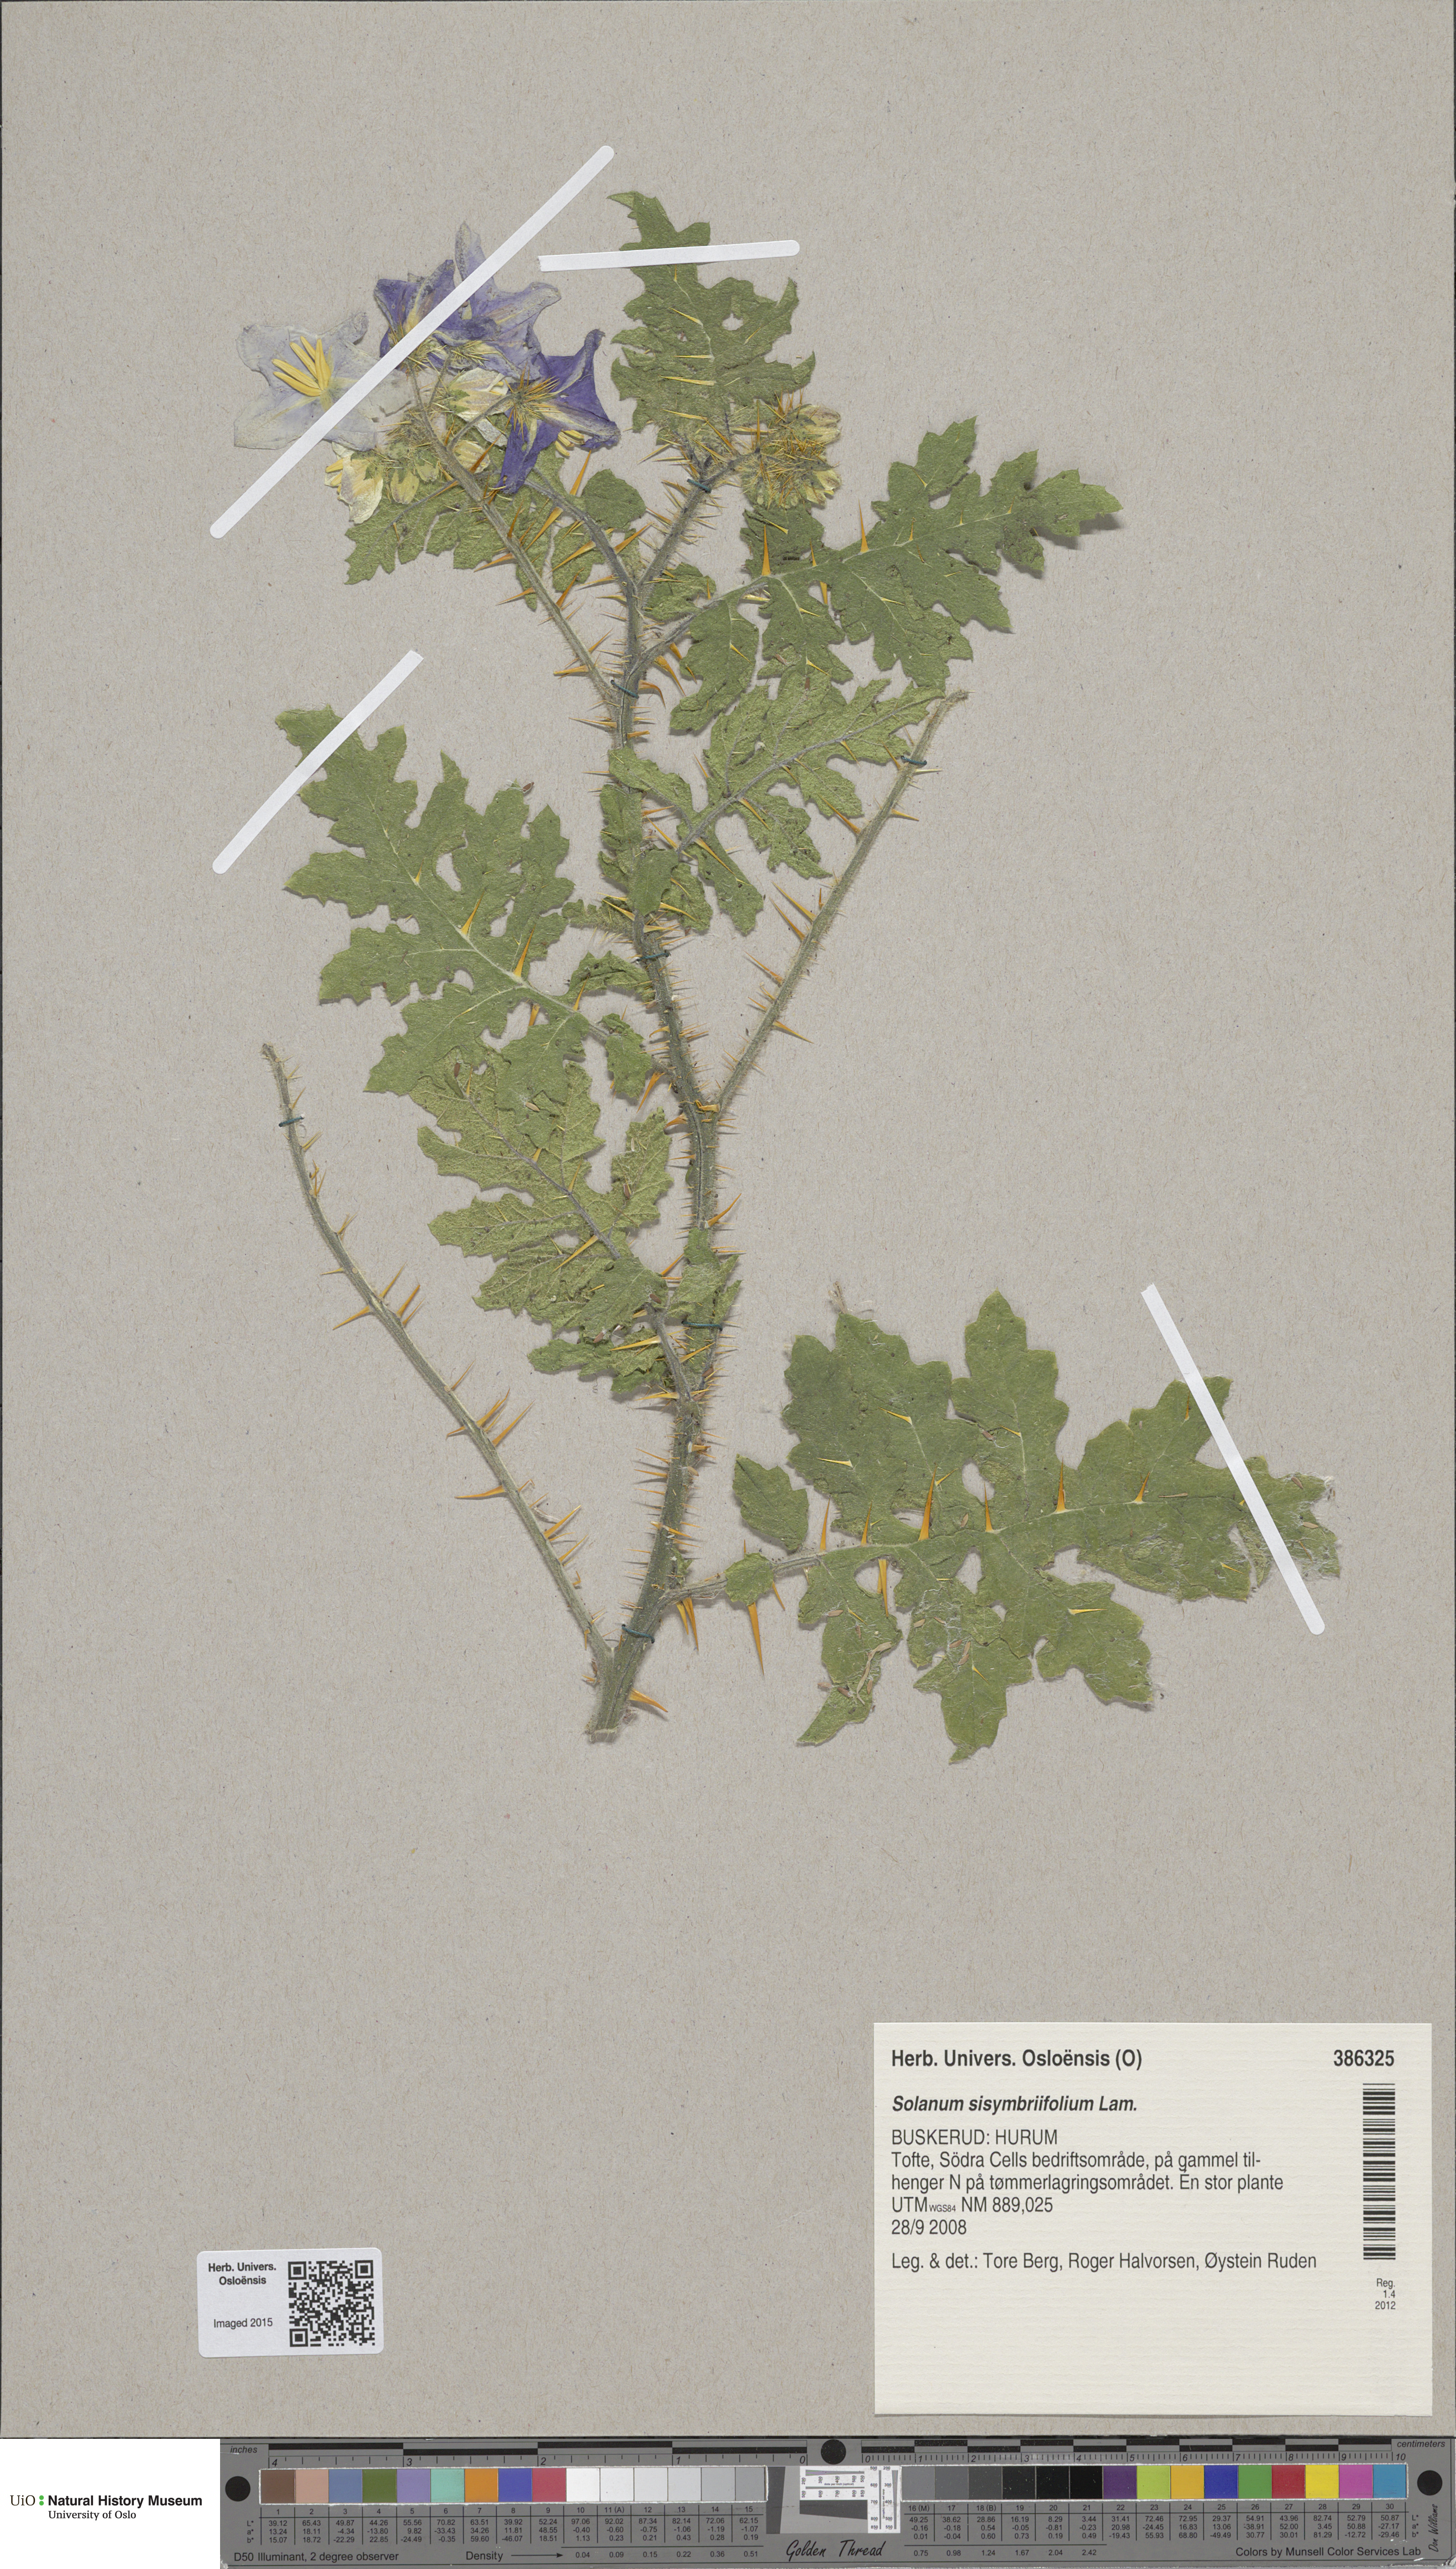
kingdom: Plantae
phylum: Tracheophyta
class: Magnoliopsida
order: Solanales
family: Solanaceae
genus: Solanum
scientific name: Solanum sisymbriifolium
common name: Red buffalo-bur
